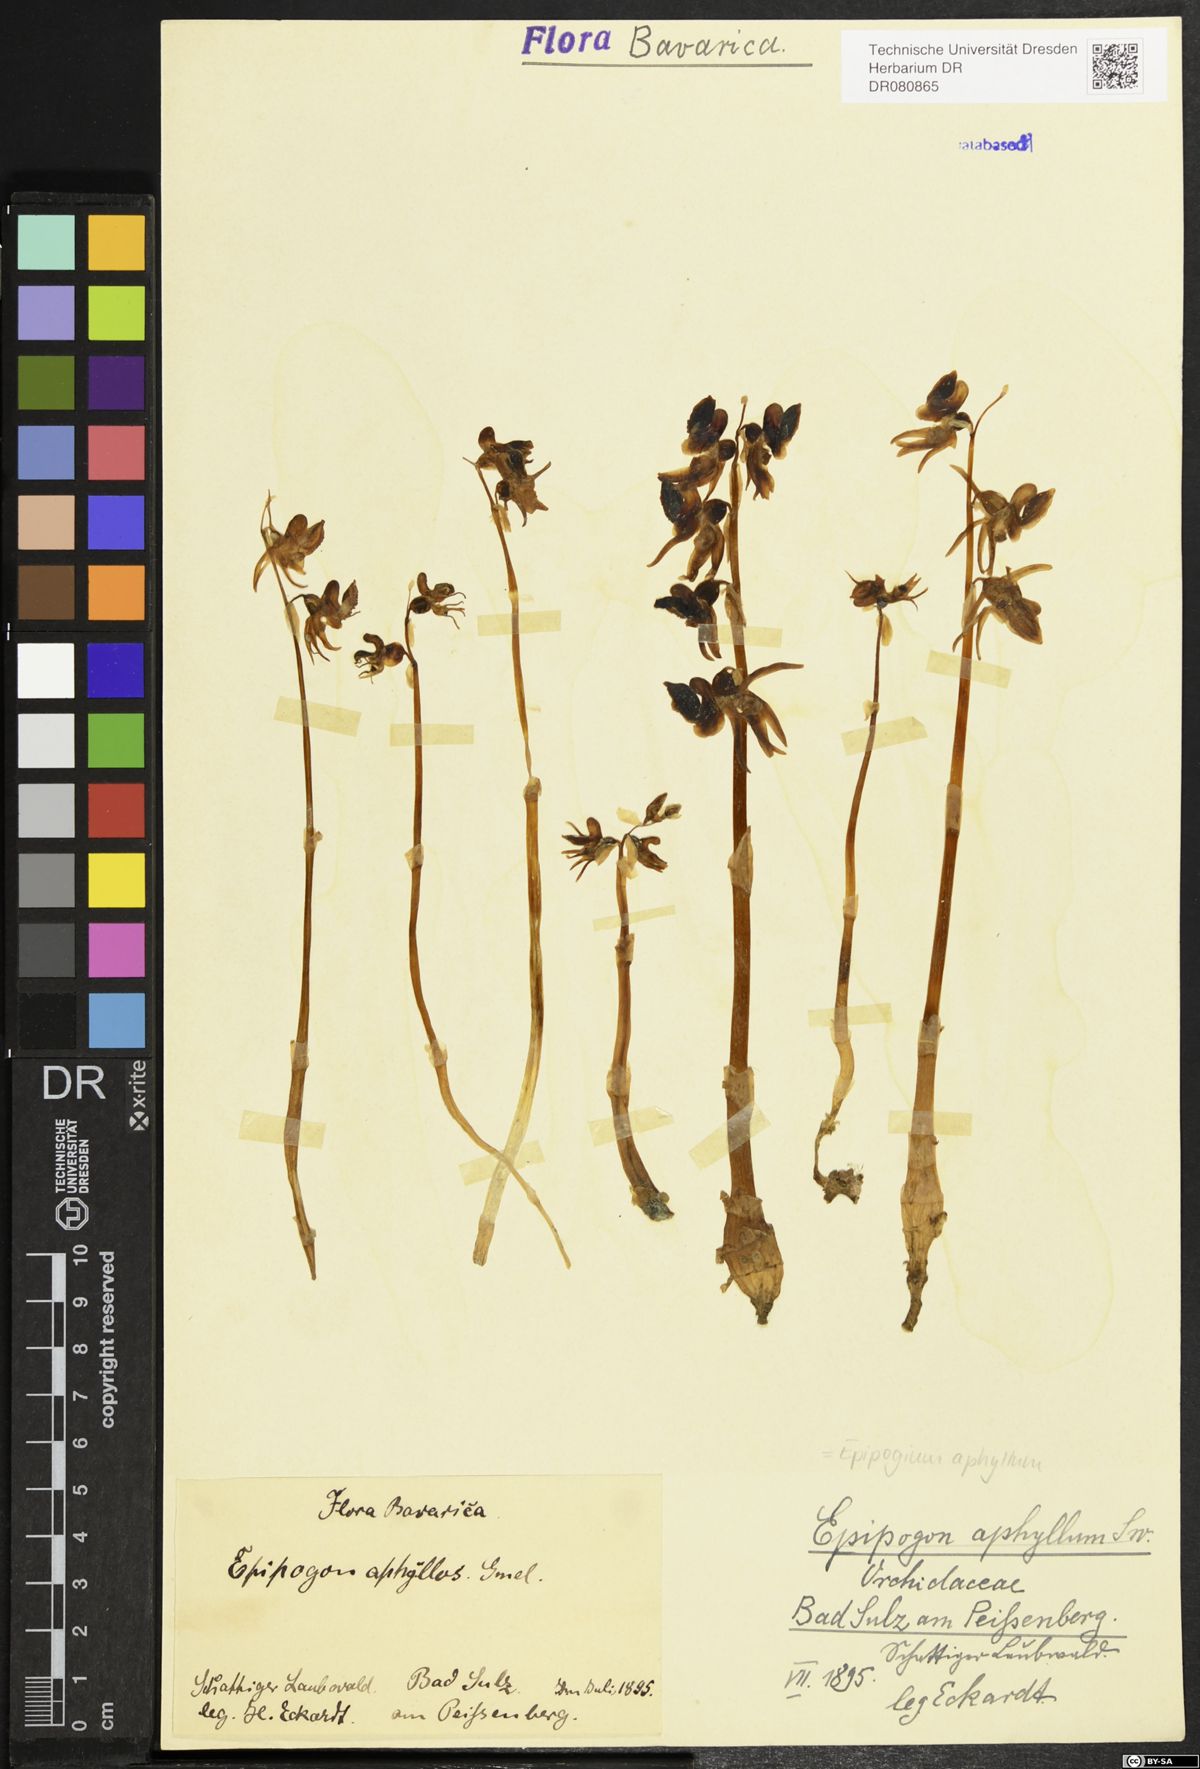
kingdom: Plantae
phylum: Tracheophyta
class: Liliopsida
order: Asparagales
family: Orchidaceae
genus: Epipogium
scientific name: Epipogium aphyllum
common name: Ghost orchid
